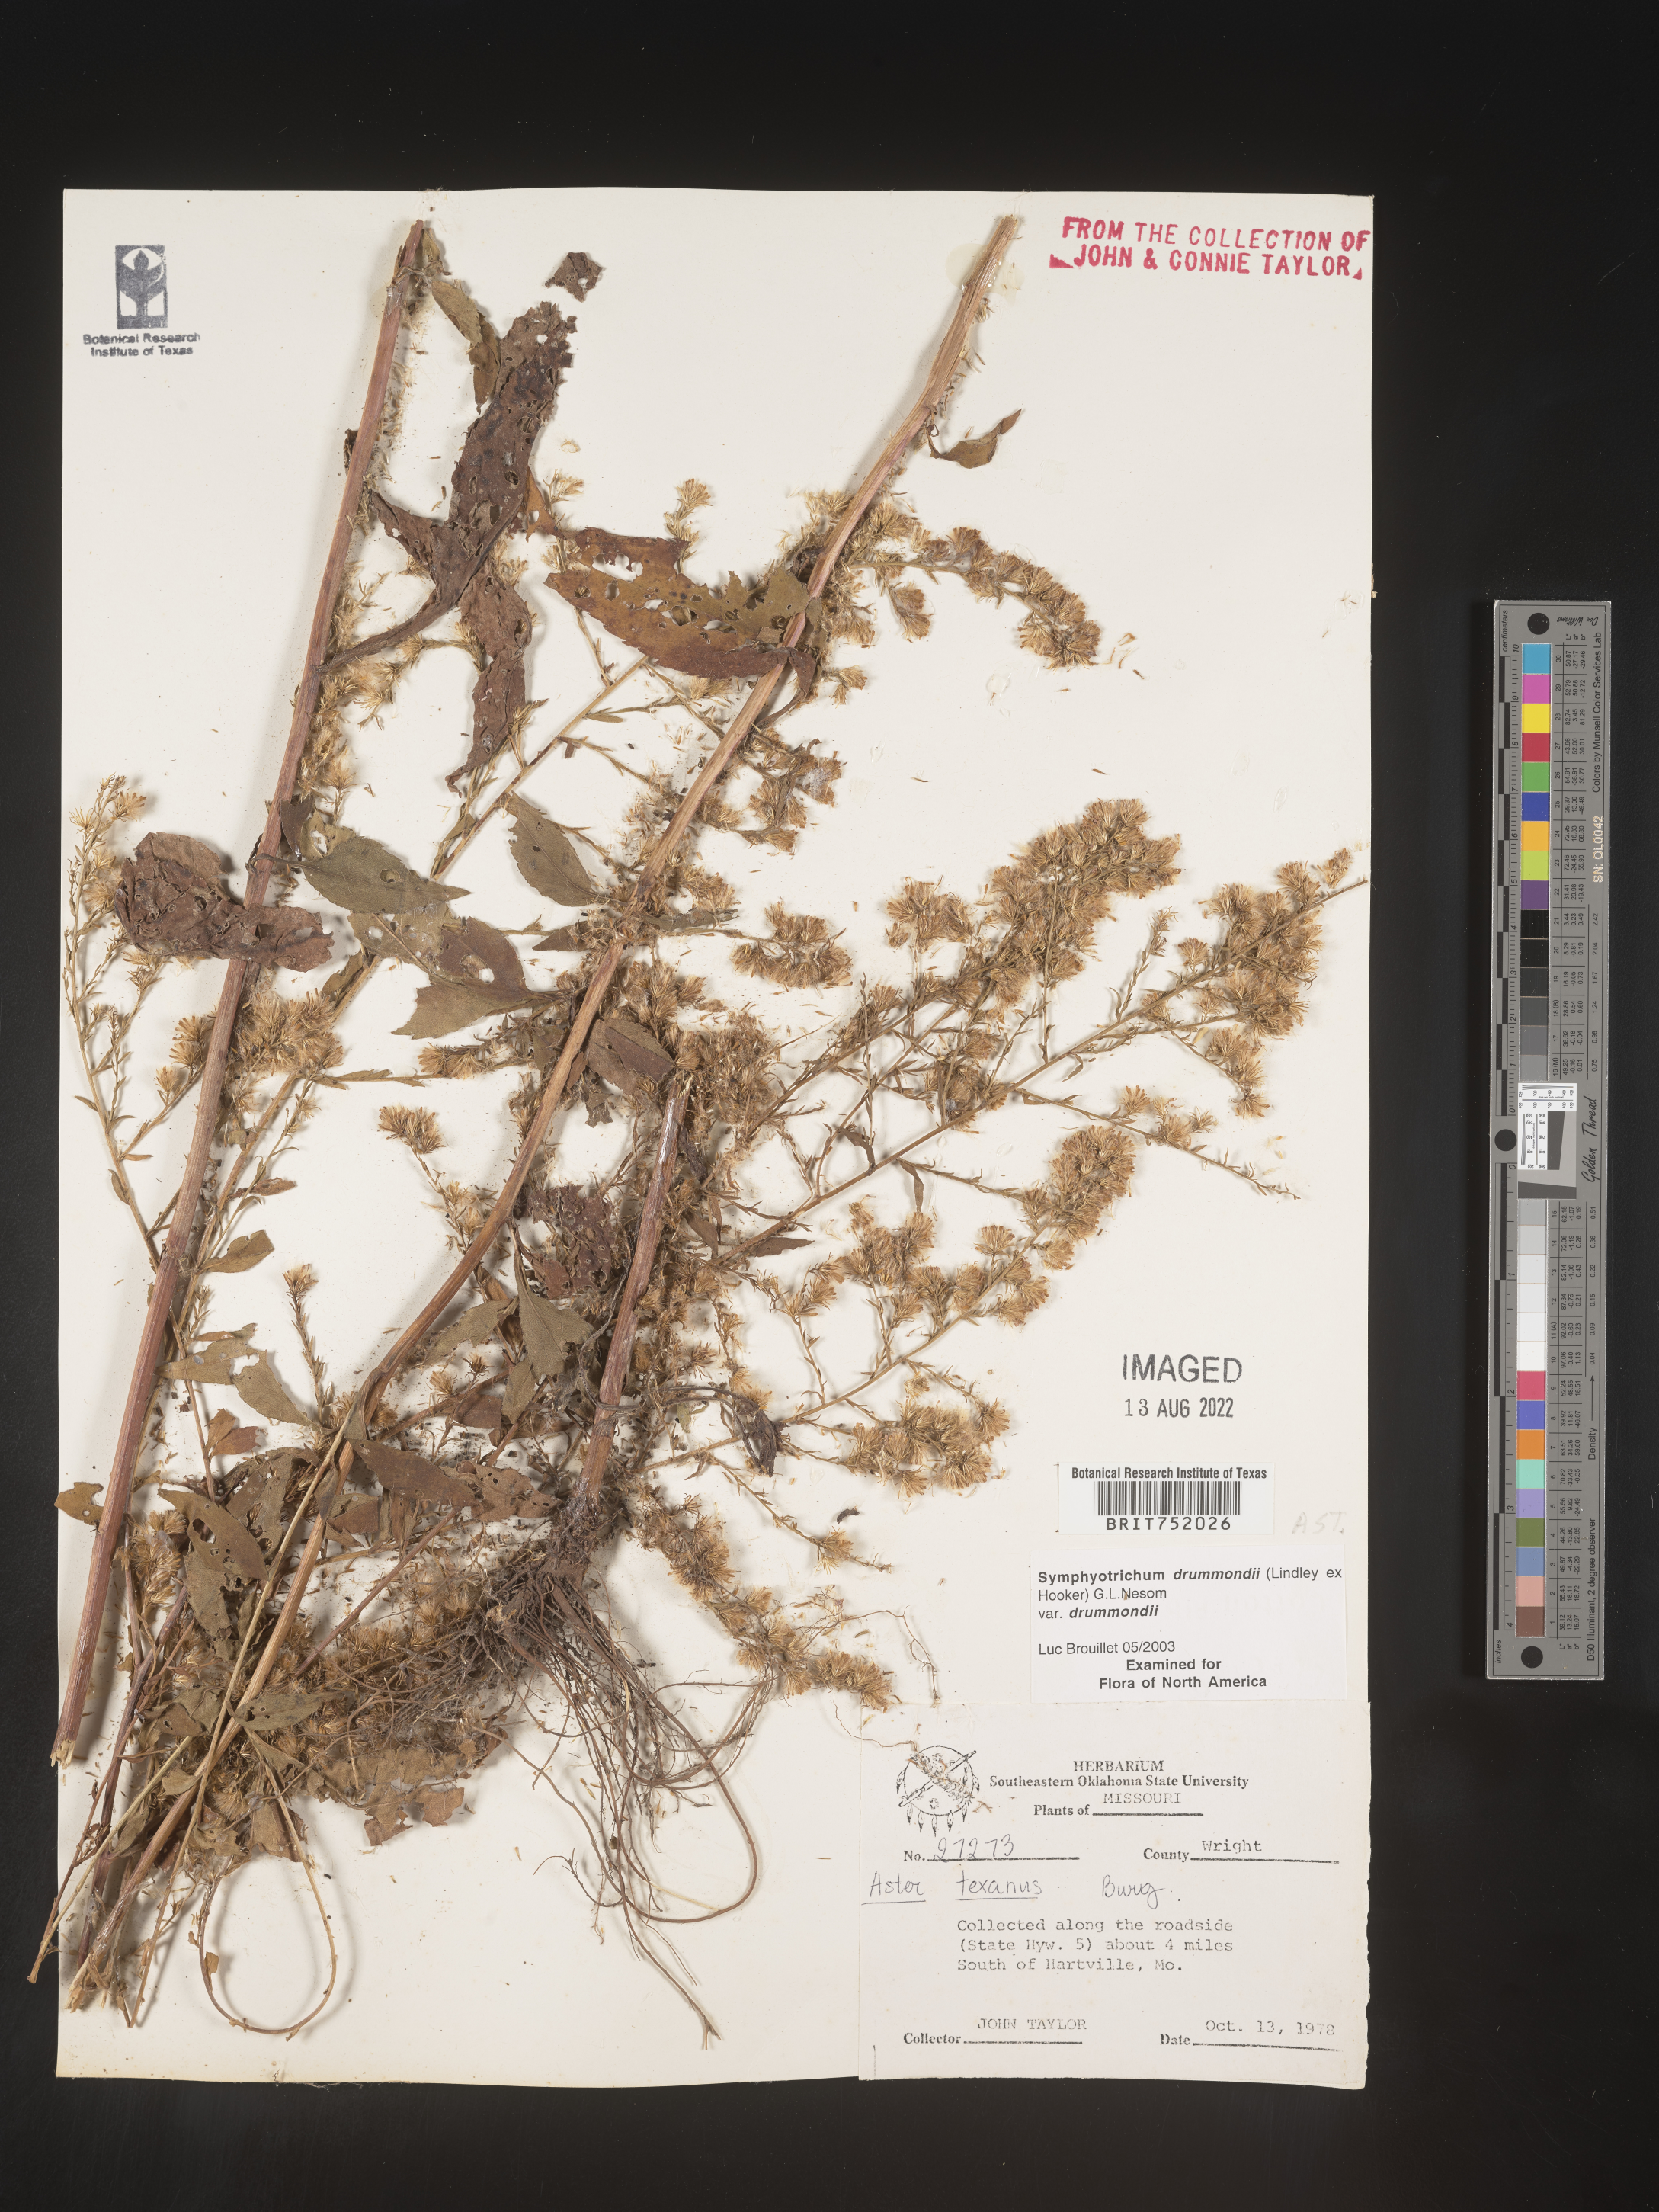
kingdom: Plantae
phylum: Tracheophyta
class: Magnoliopsida
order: Asterales
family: Asteraceae
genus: Symphyotrichum
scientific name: Symphyotrichum drummondii
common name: Drummond's aster
